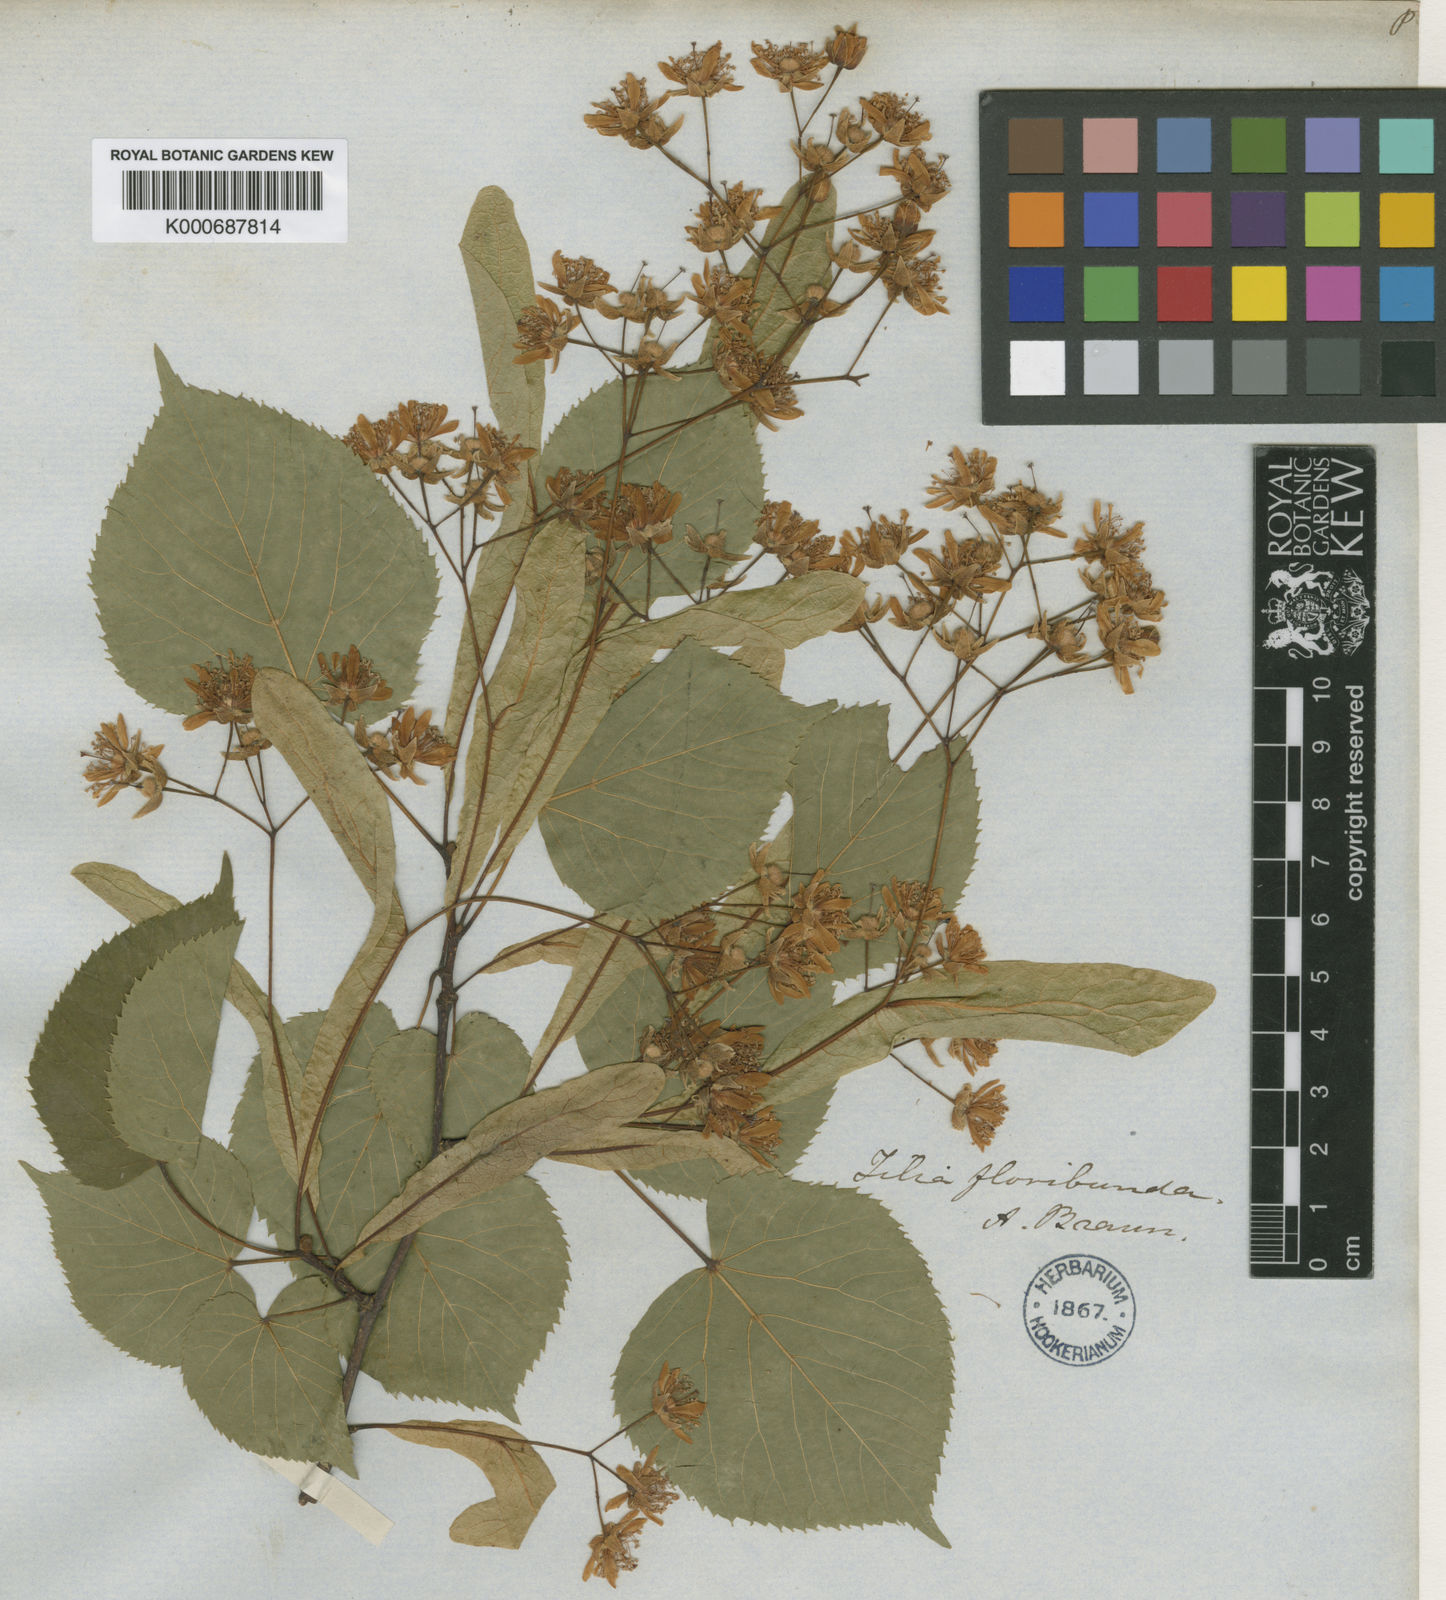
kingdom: Plantae
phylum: Tracheophyta
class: Magnoliopsida
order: Malvales
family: Malvaceae
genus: Tilia
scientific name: Tilia flavescens
